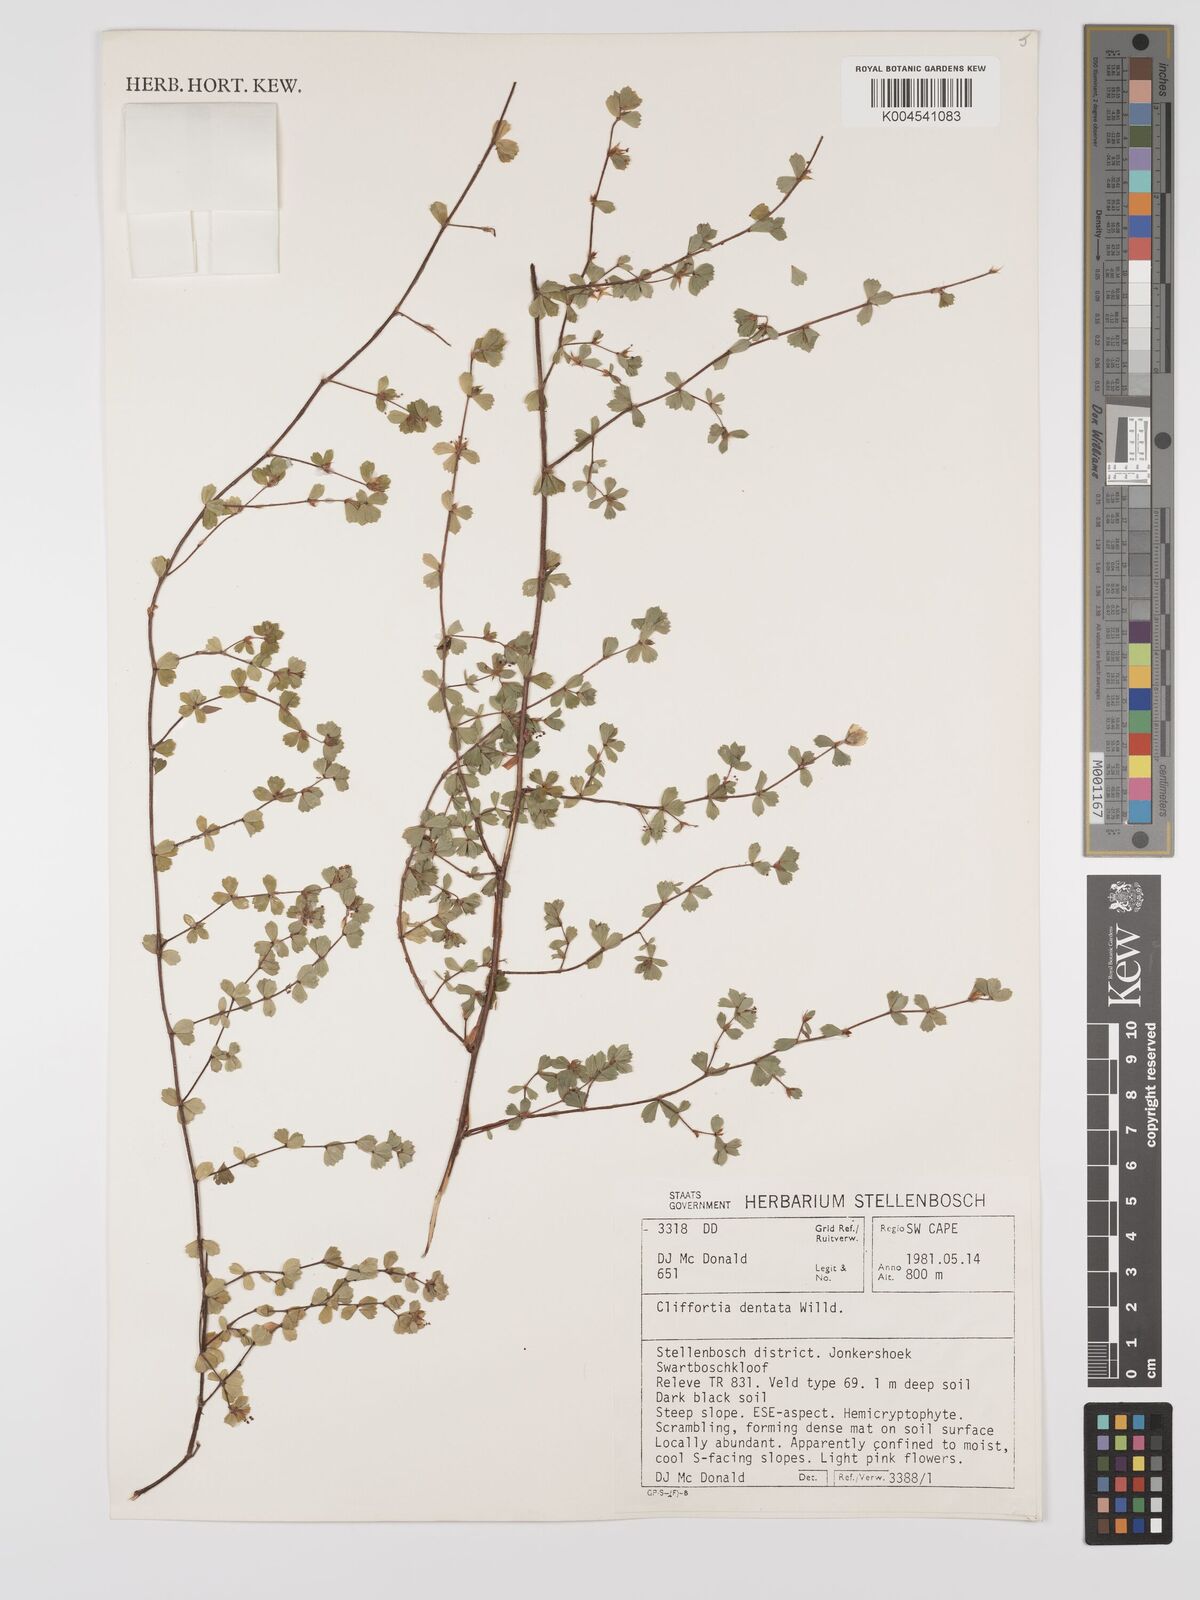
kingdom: Plantae
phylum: Tracheophyta
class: Magnoliopsida
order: Rosales
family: Rosaceae
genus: Cliffortia
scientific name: Cliffortia
